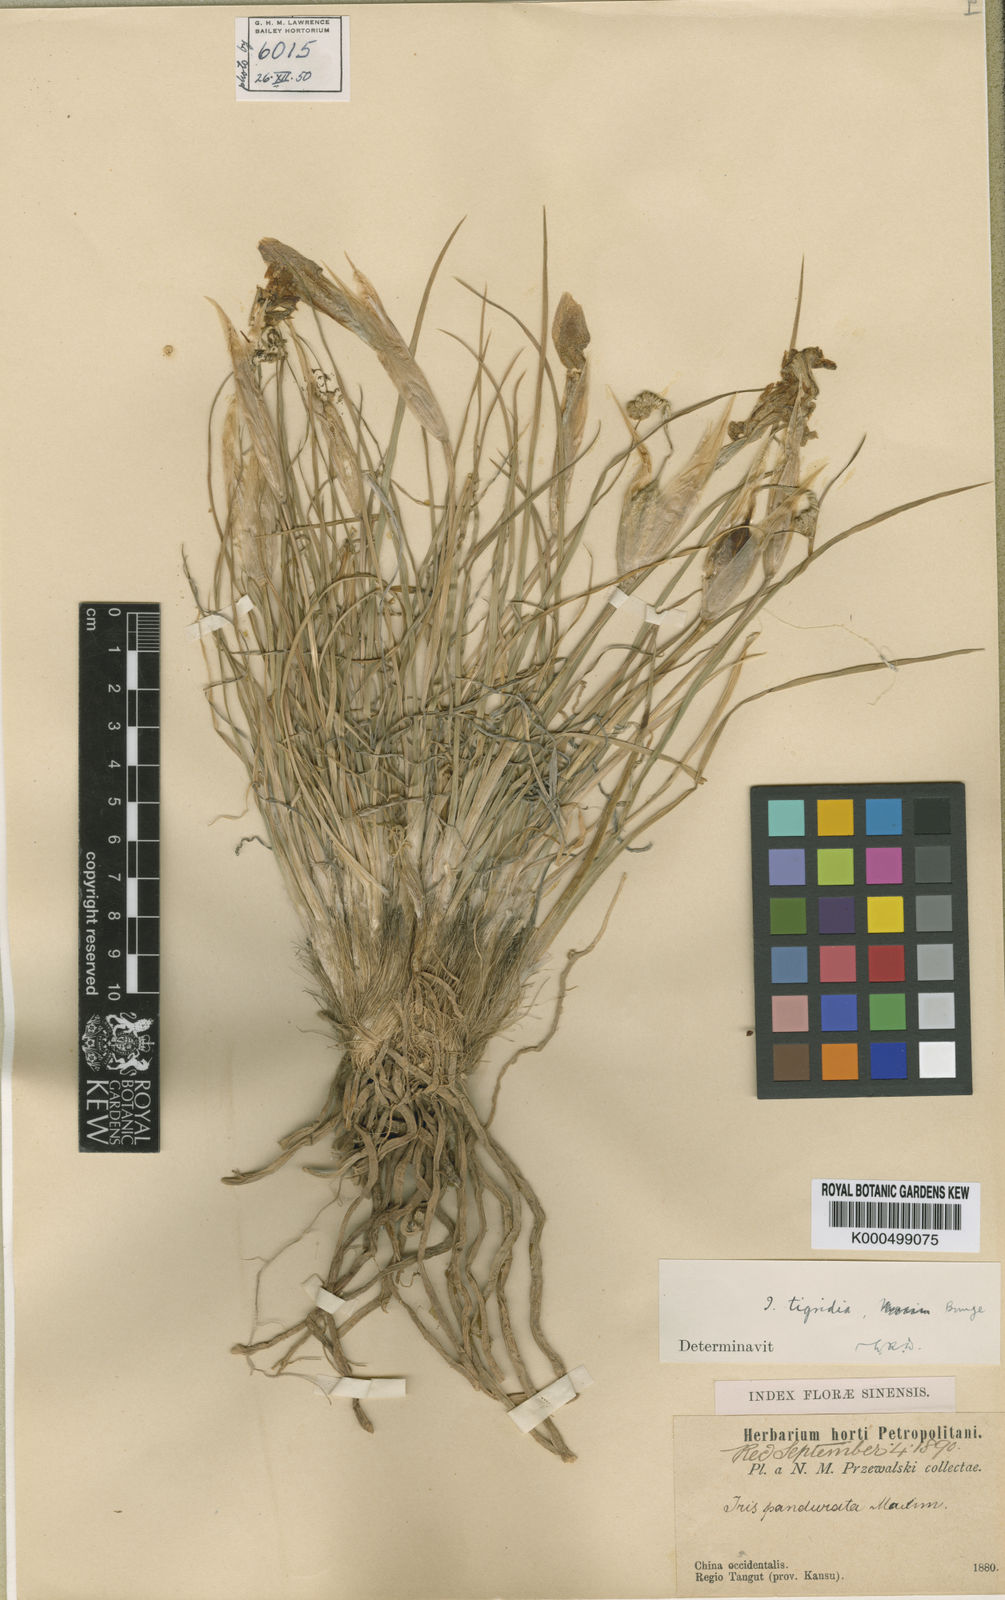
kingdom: Plantae
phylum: Tracheophyta
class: Liliopsida
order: Asparagales
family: Iridaceae
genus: Iris
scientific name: Iris
